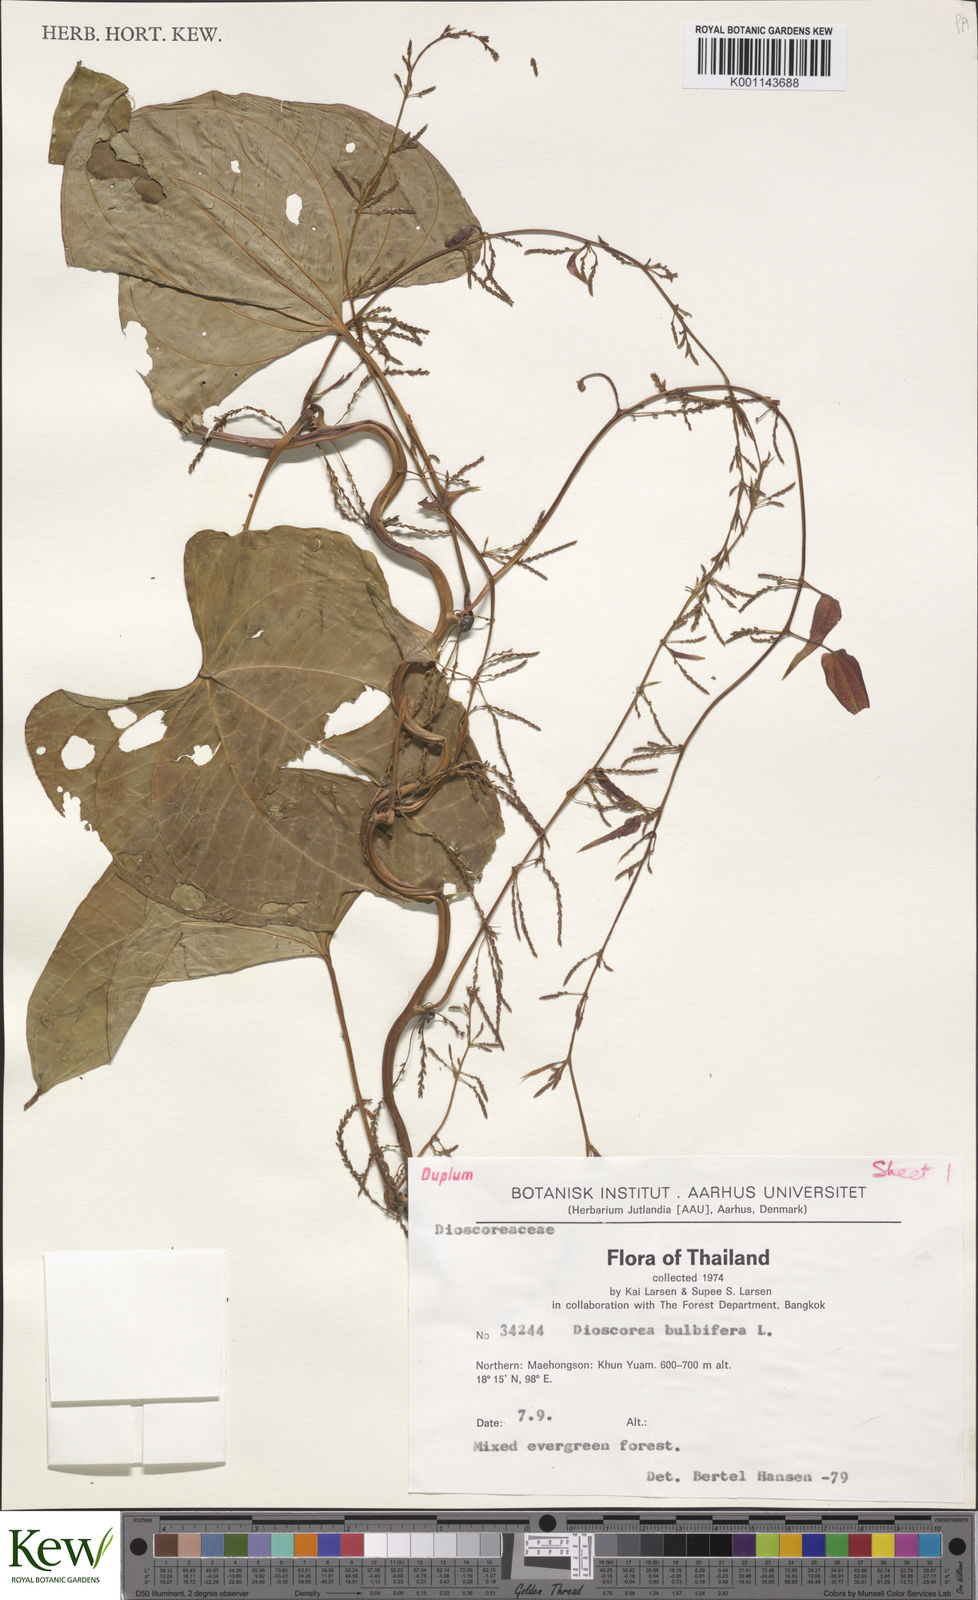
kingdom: Plantae
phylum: Tracheophyta
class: Liliopsida
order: Dioscoreales
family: Dioscoreaceae
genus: Dioscorea
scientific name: Dioscorea bulbifera
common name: Air yam
